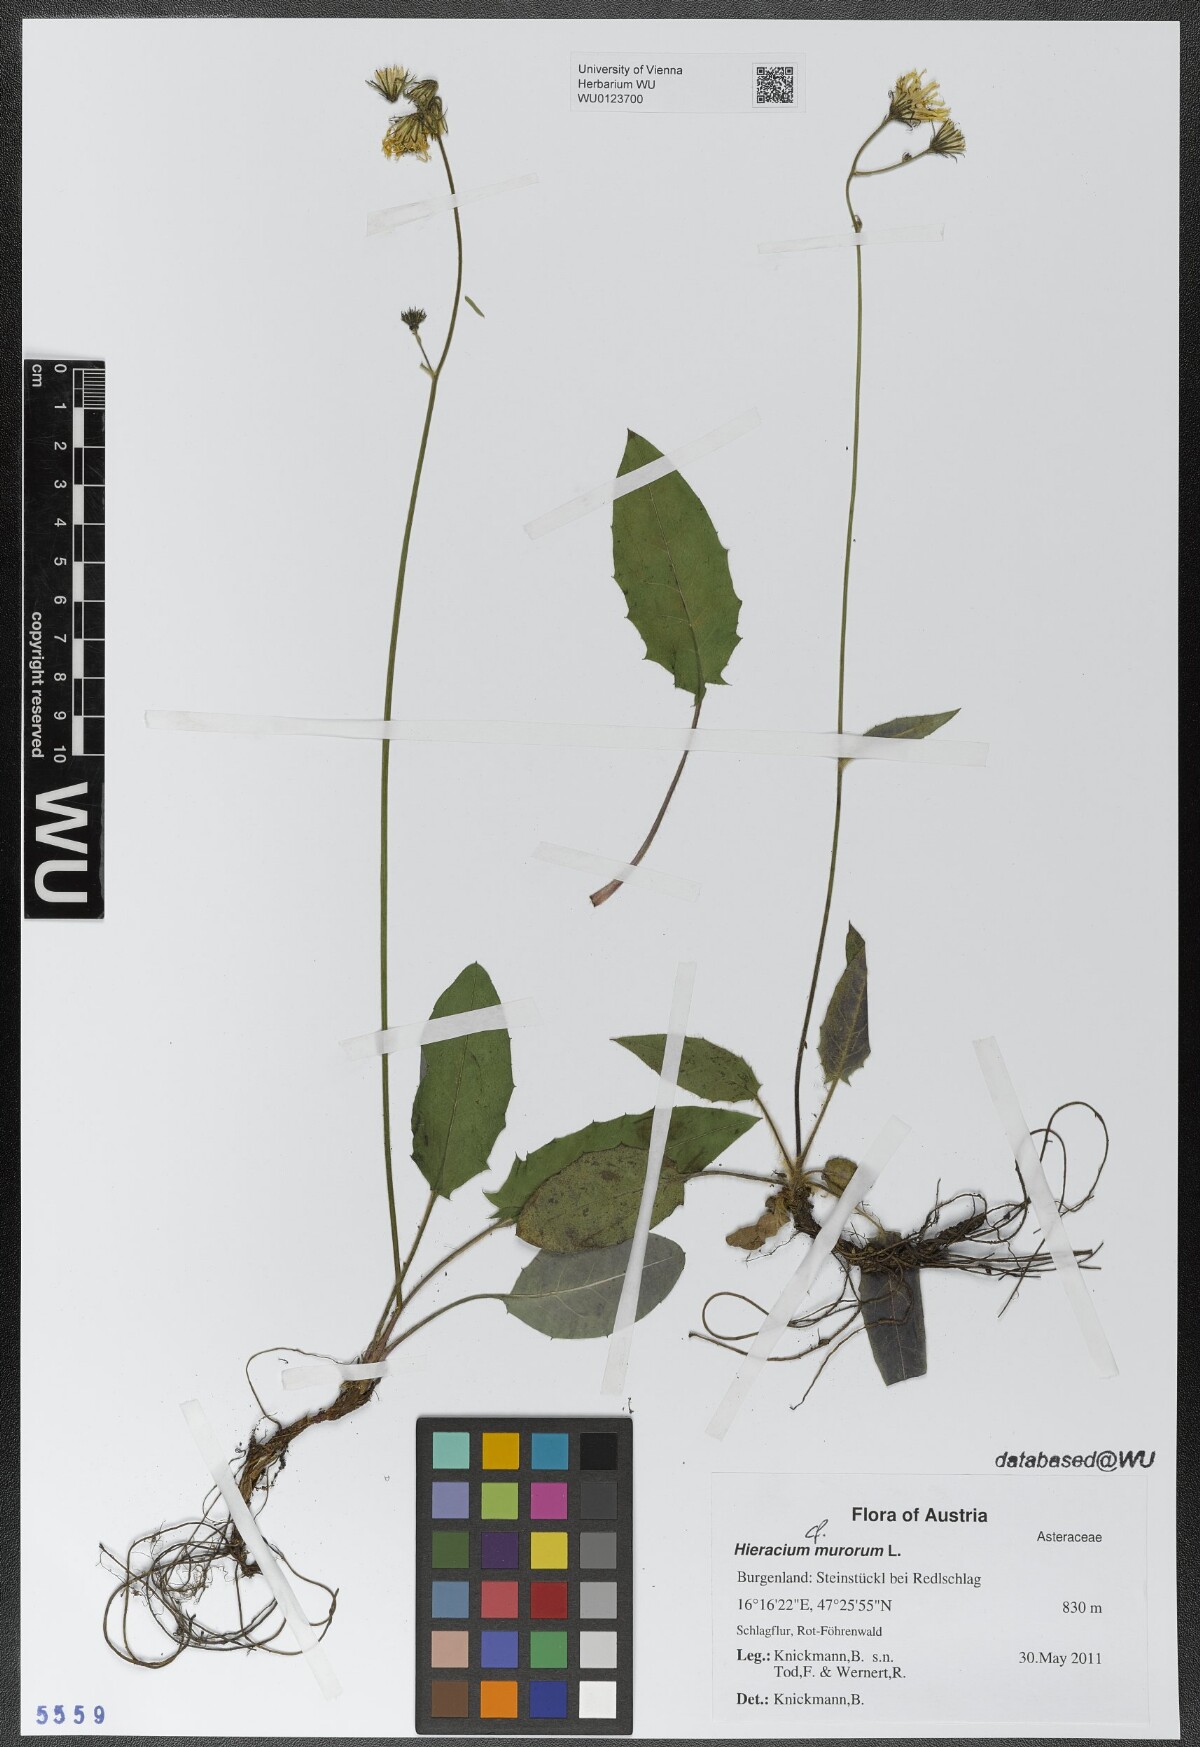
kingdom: Plantae
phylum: Tracheophyta
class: Magnoliopsida
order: Asterales
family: Asteraceae
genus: Hieracium
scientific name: Hieracium murorum
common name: Wall hawkweed
